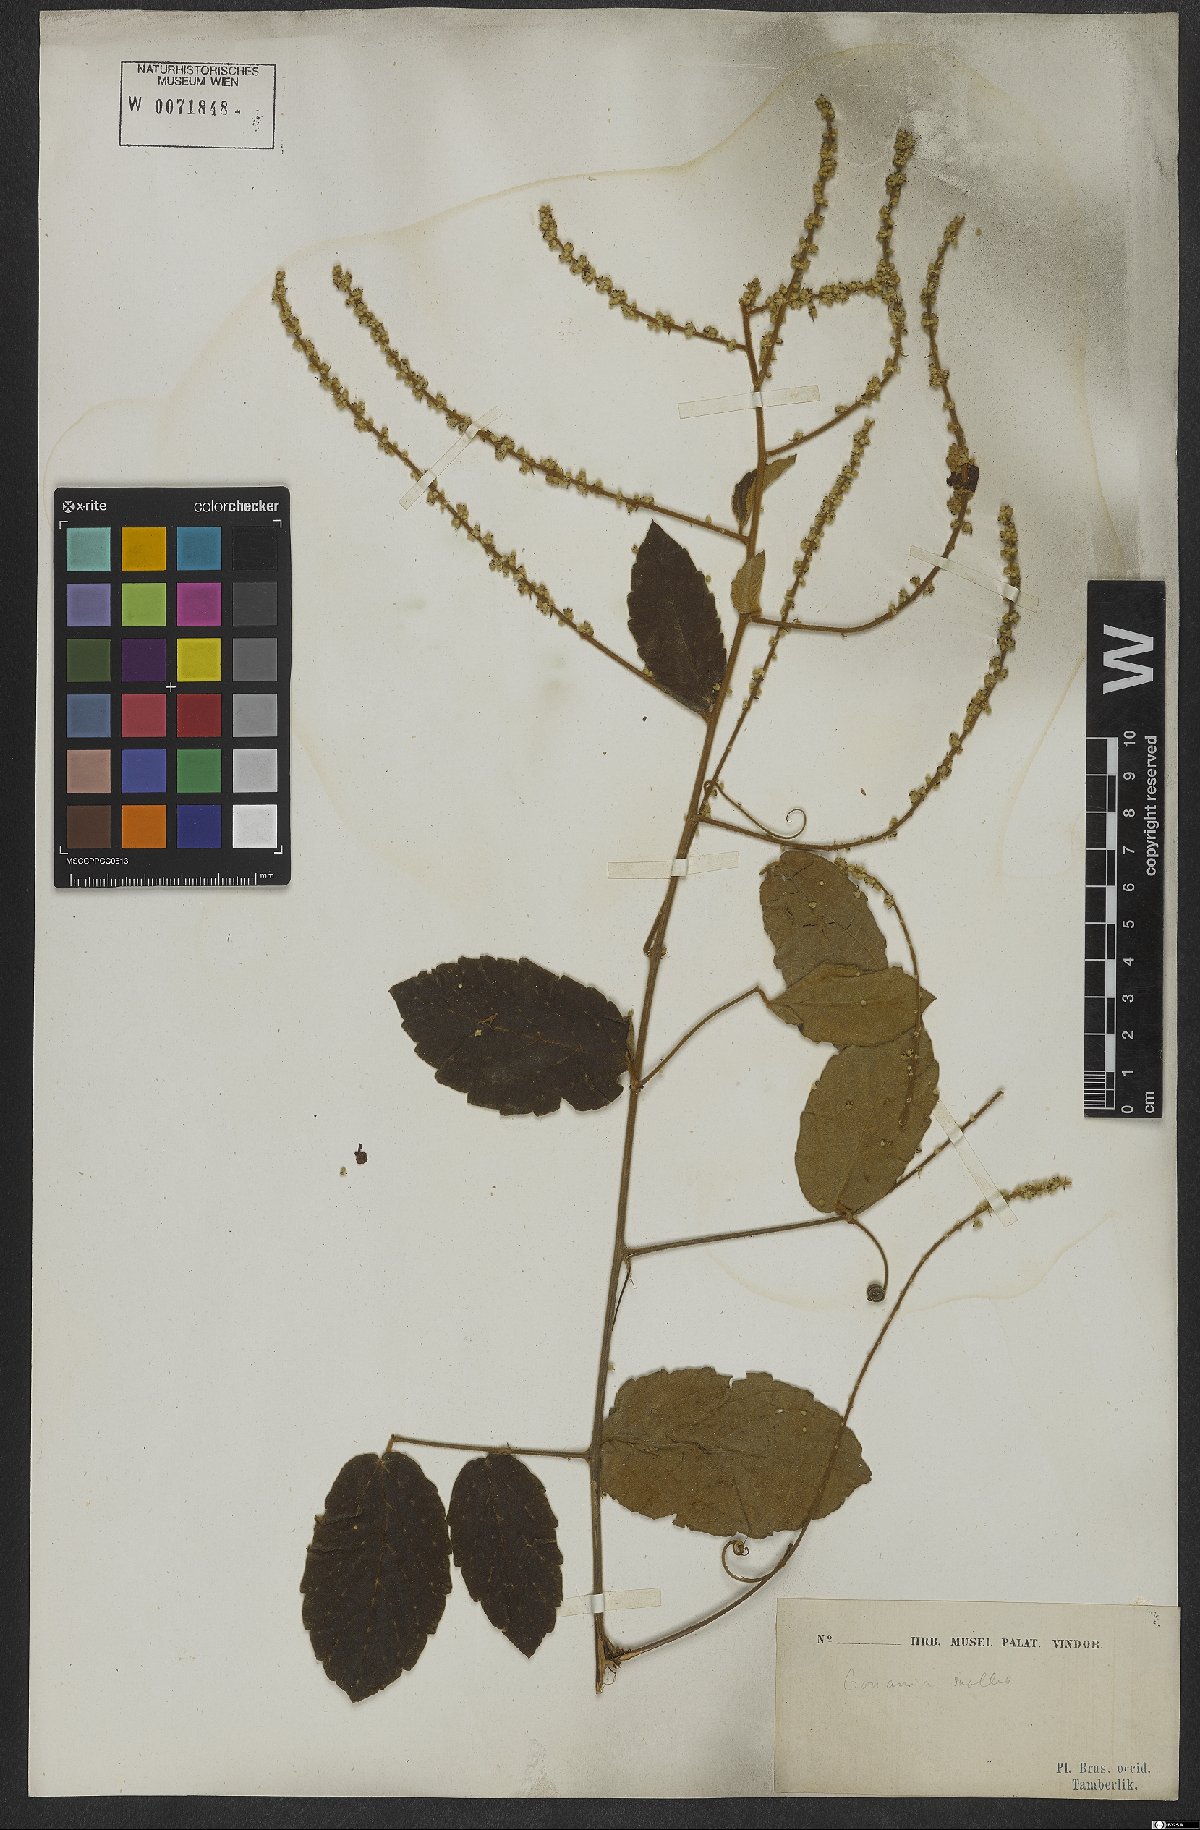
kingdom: Plantae
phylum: Tracheophyta
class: Magnoliopsida
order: Rosales
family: Rhamnaceae
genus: Gouania
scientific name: Gouania latifolia
